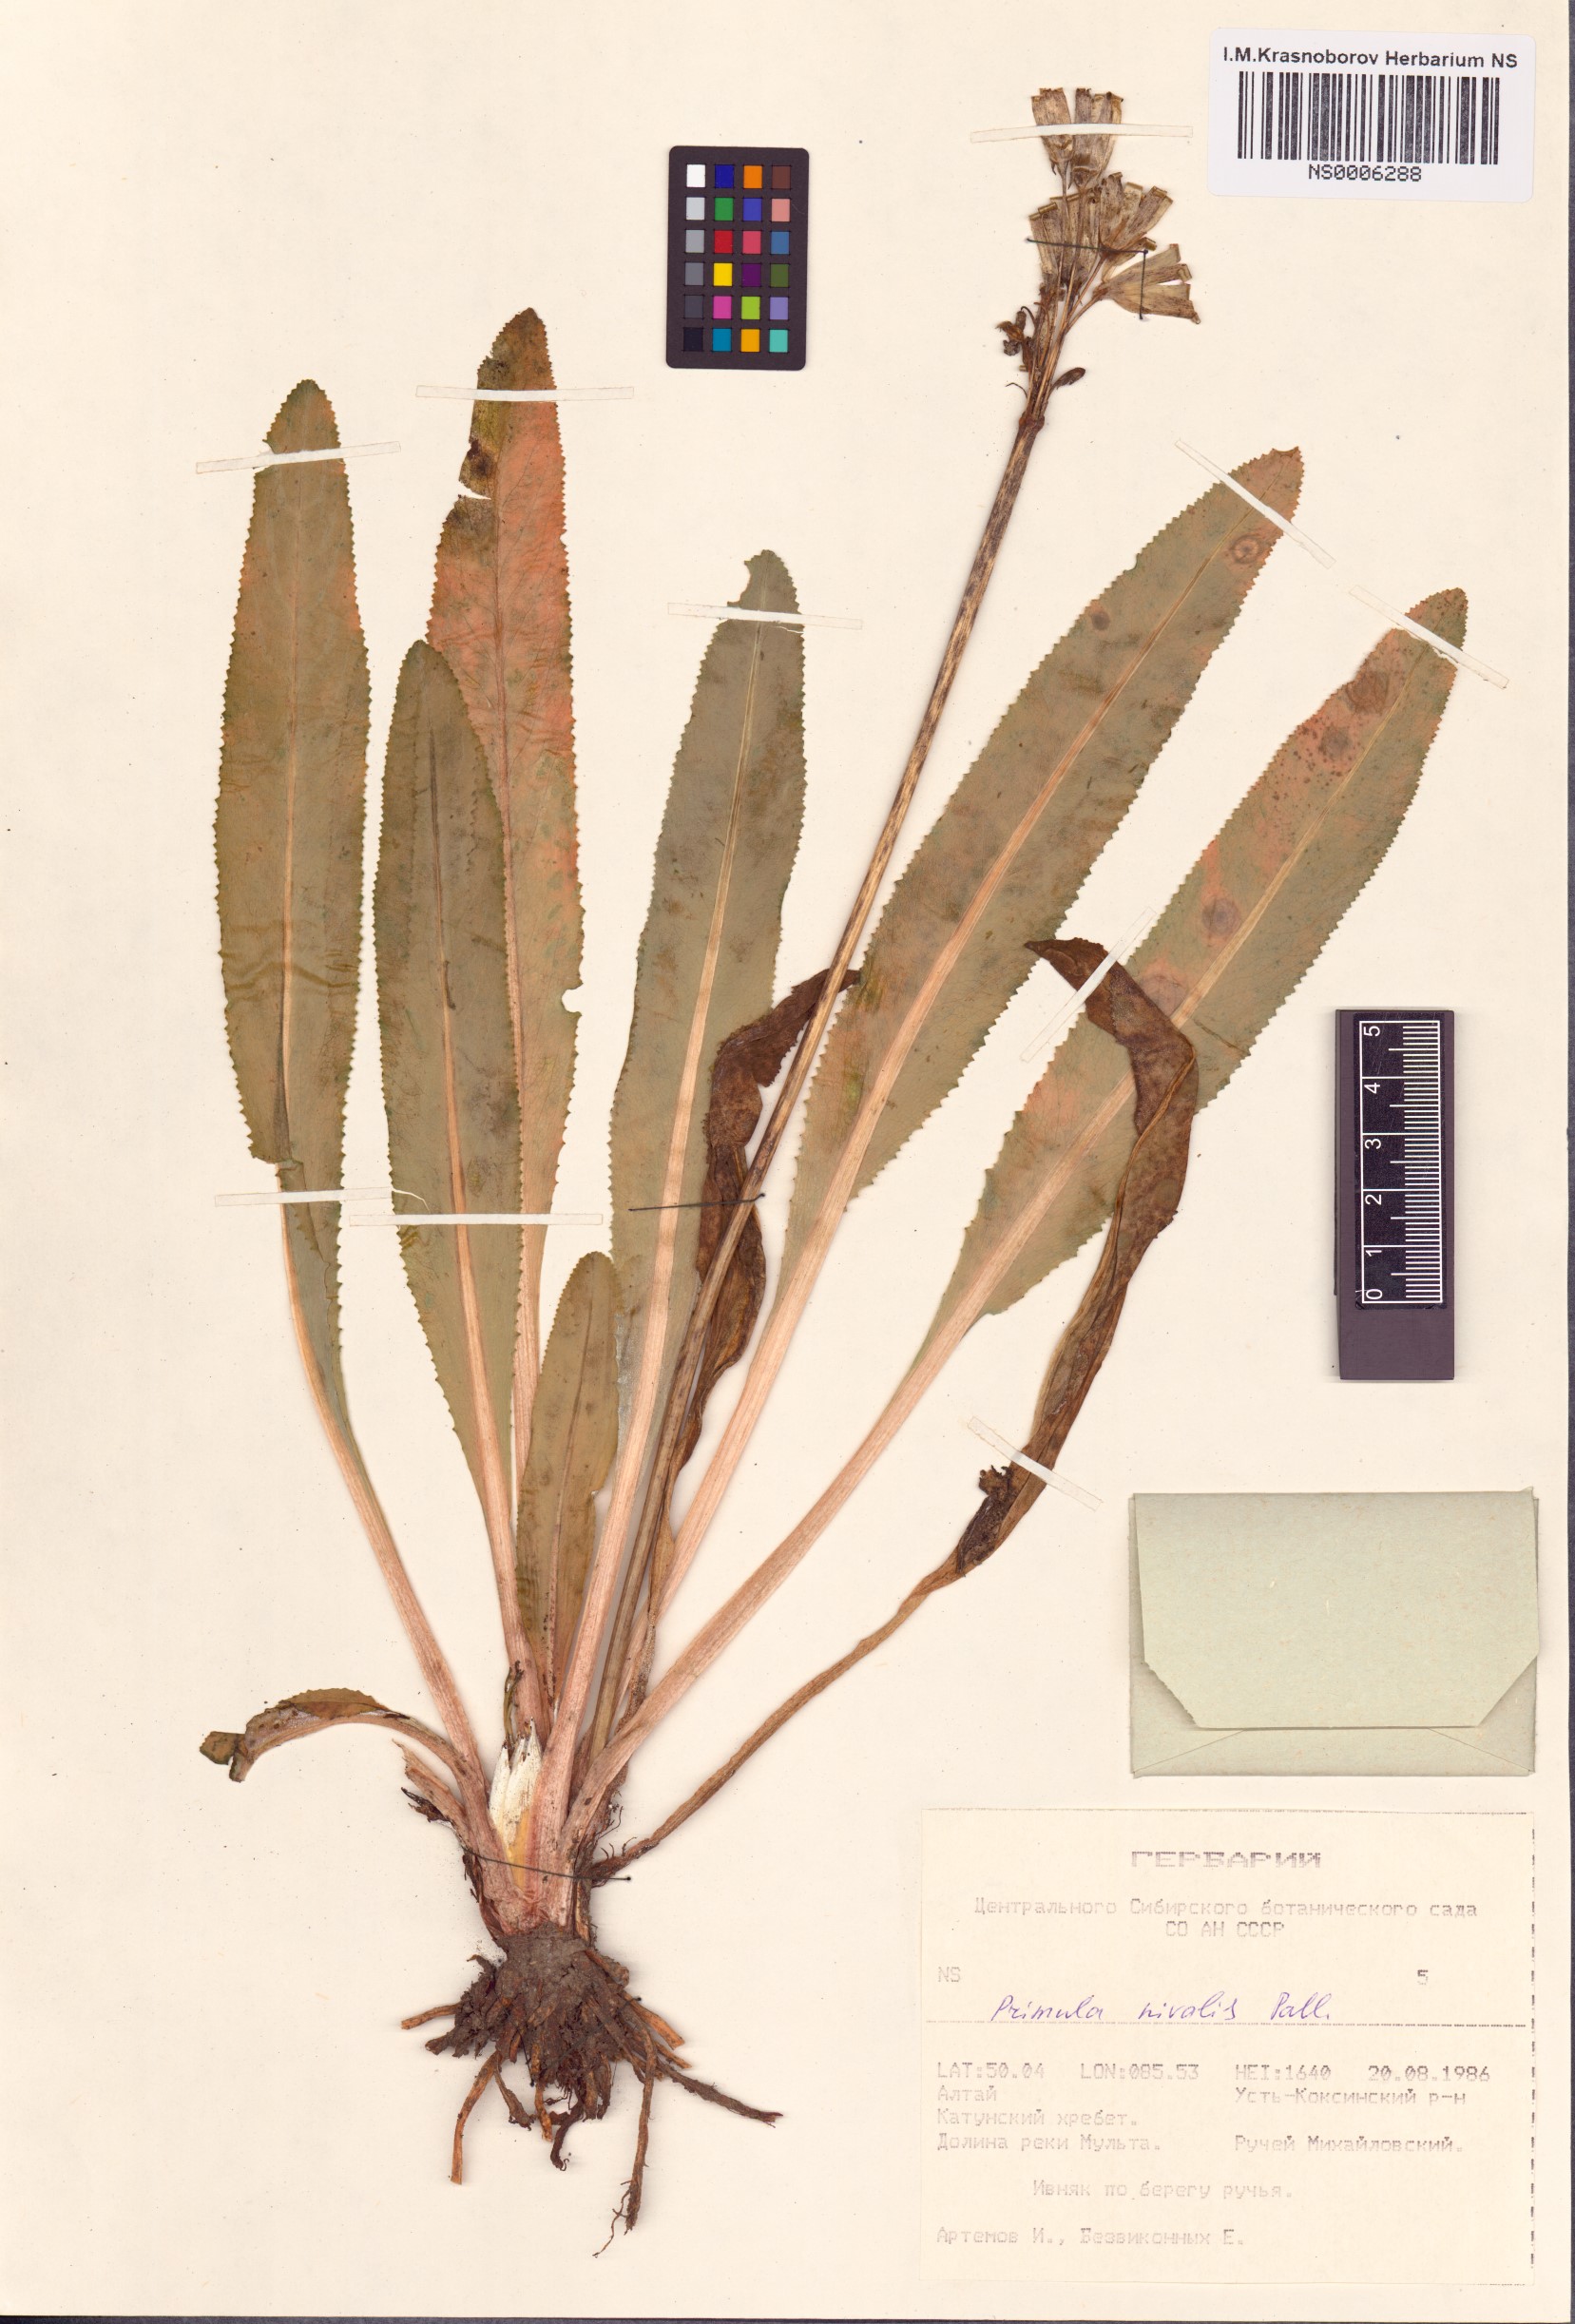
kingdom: Plantae
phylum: Tracheophyta
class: Magnoliopsida
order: Ericales
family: Primulaceae
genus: Primula
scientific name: Primula nivalis
